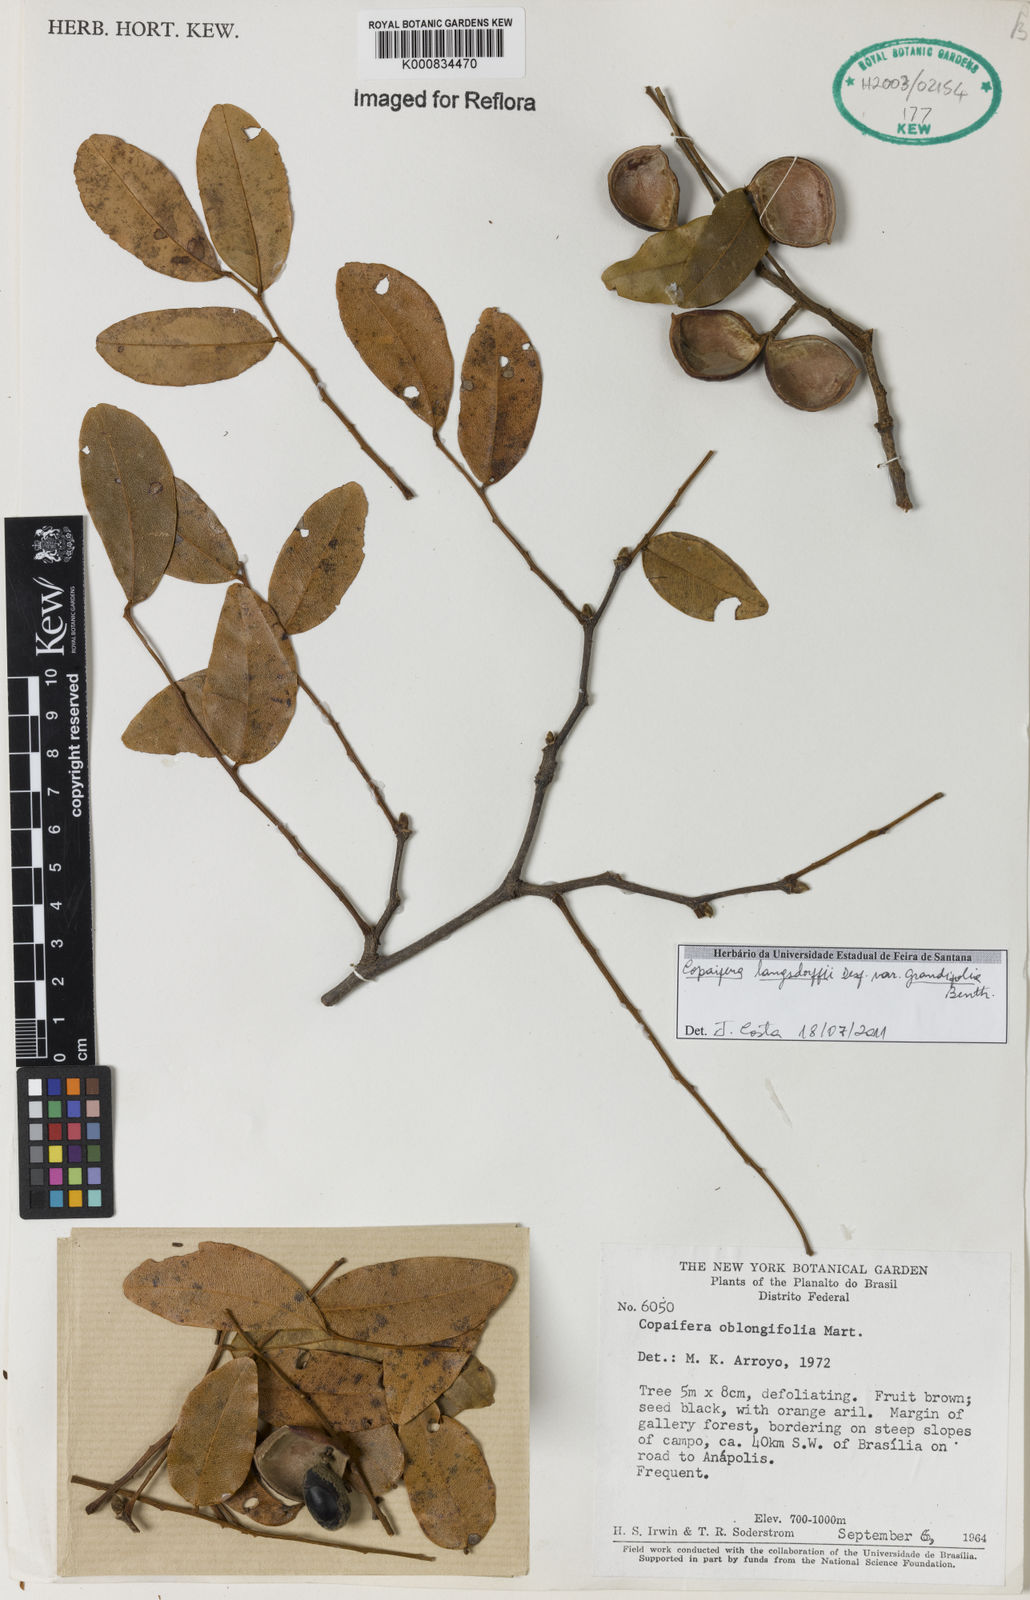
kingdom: Plantae
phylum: Tracheophyta
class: Magnoliopsida
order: Fabales
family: Fabaceae
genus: Copaifera
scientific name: Copaifera langsdorffii
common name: Brazilian diesel tree
